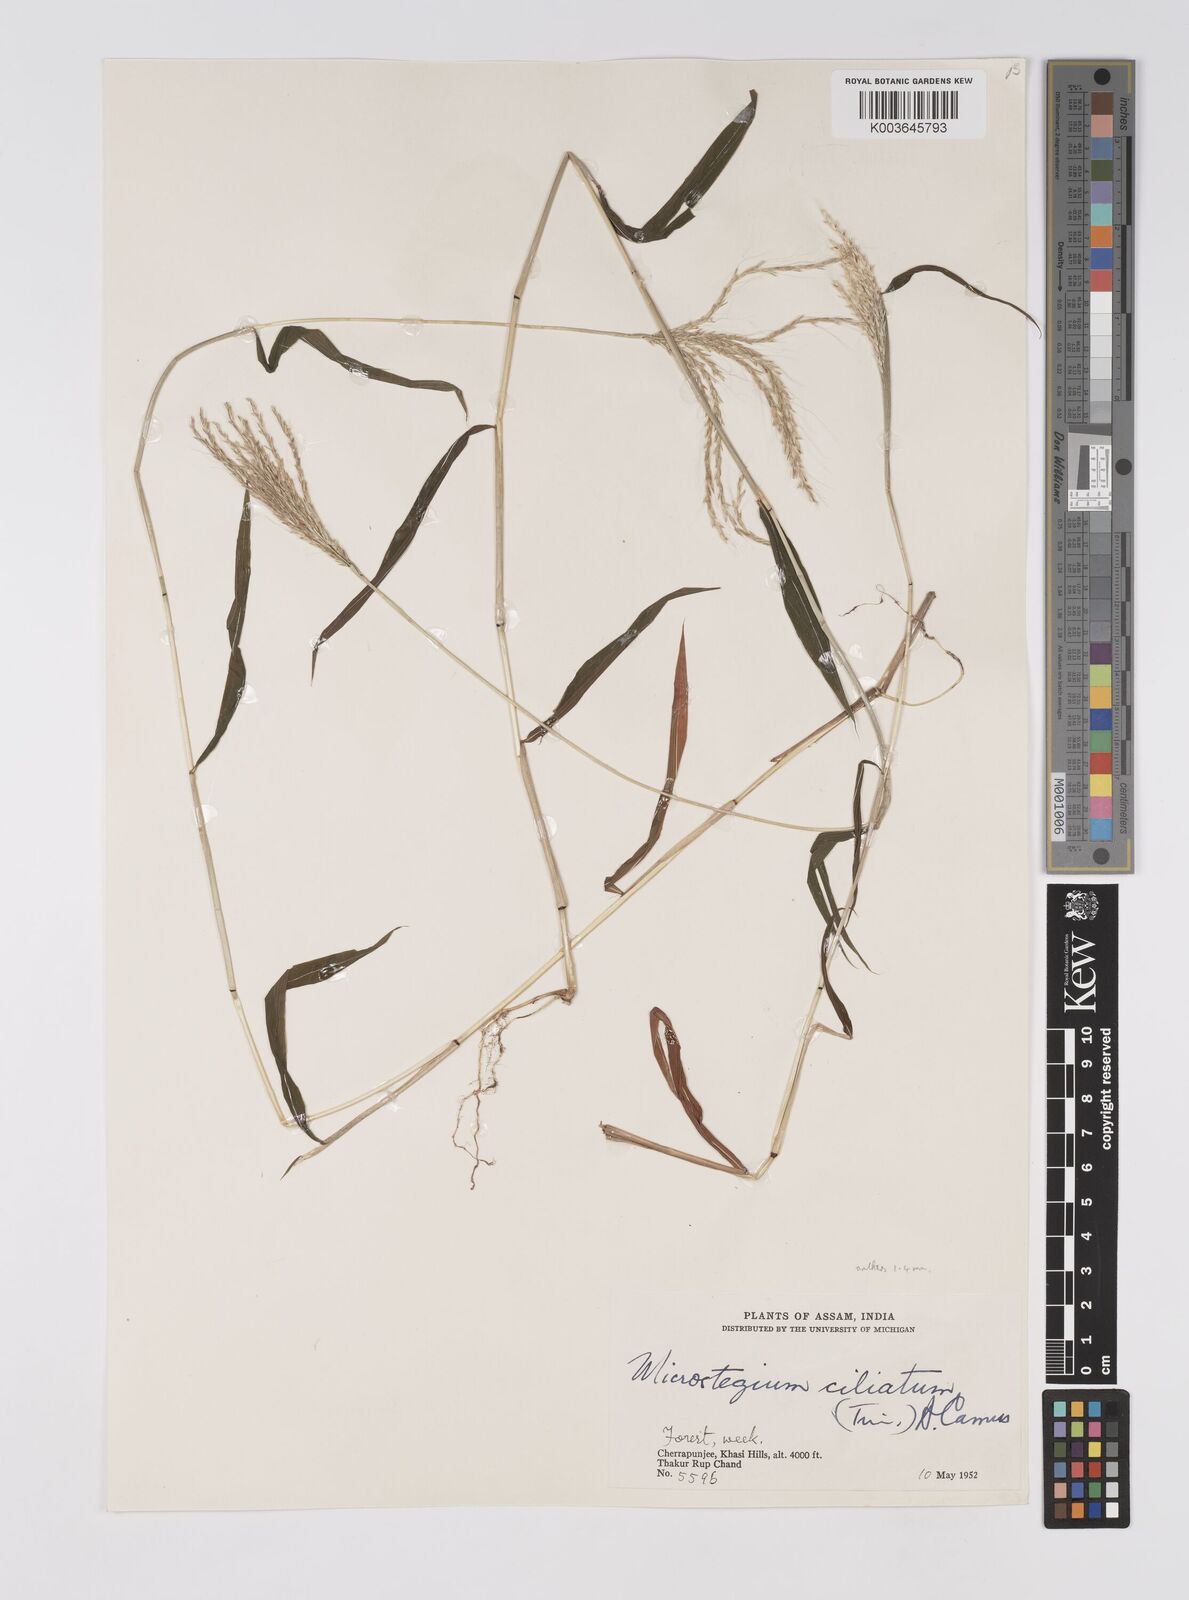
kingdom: Plantae
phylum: Tracheophyta
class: Liliopsida
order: Poales
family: Poaceae
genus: Microstegium
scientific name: Microstegium fasciculatum
